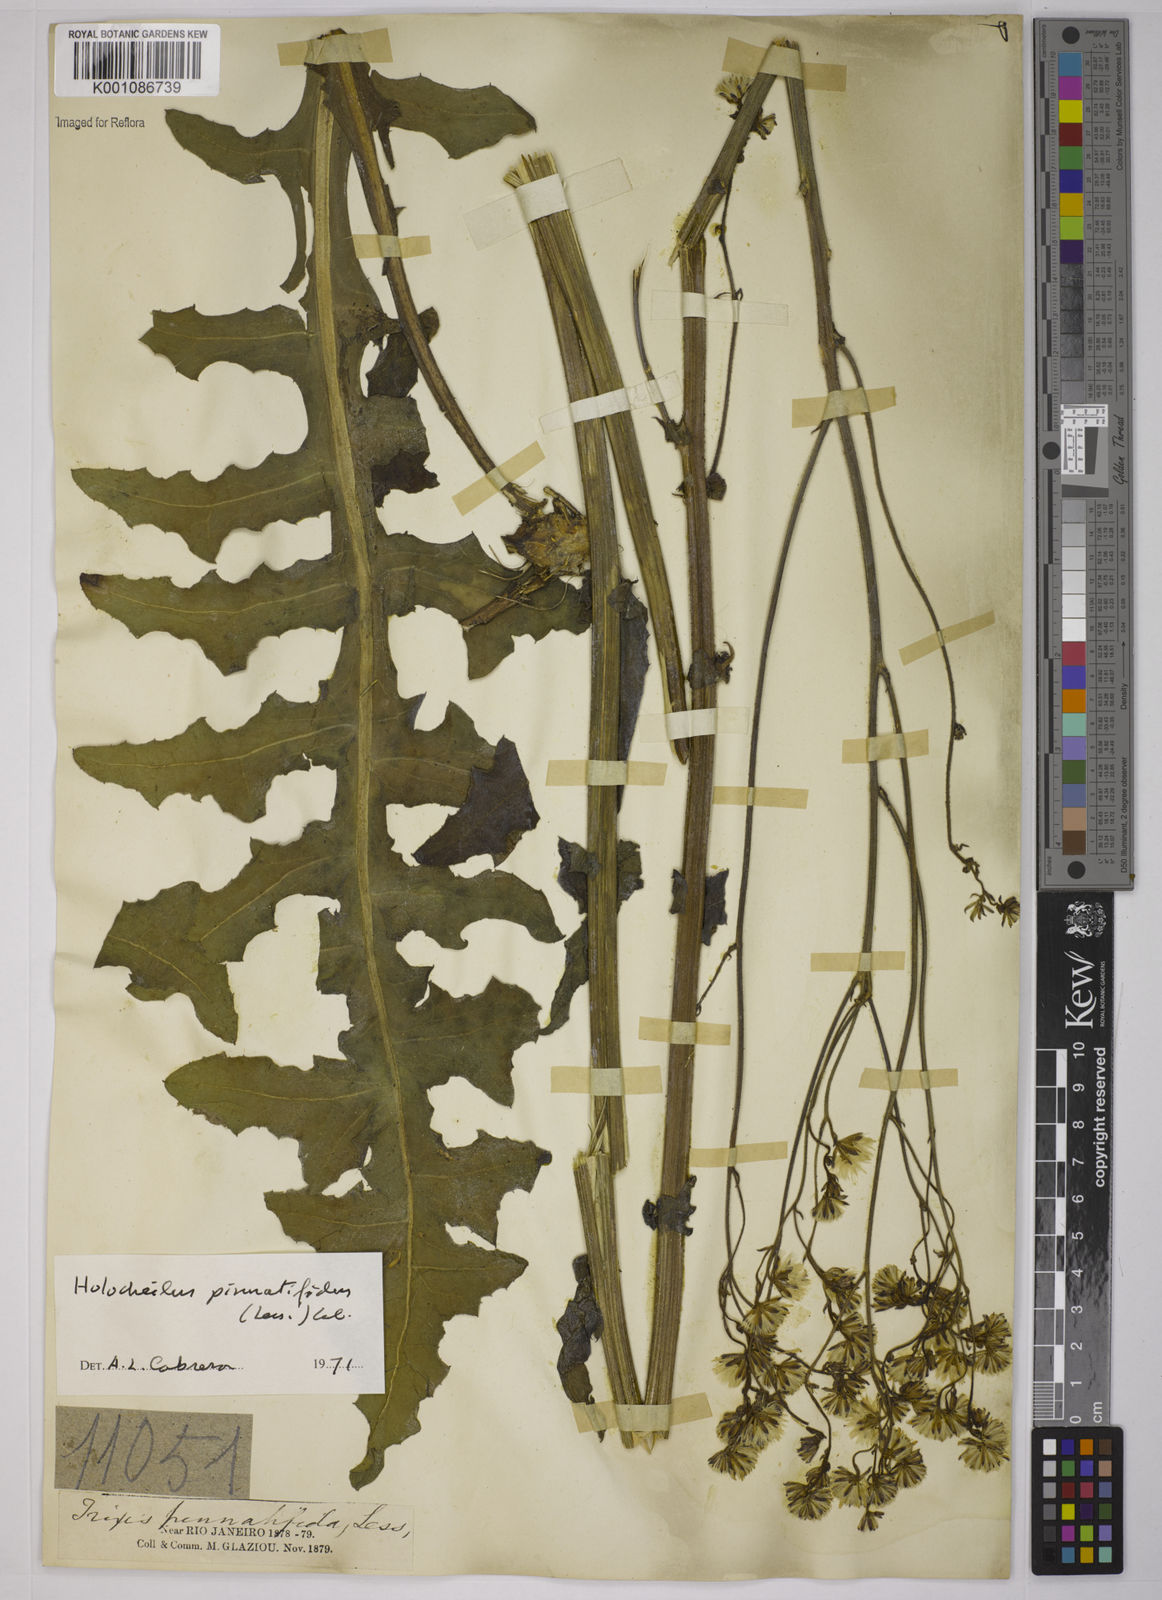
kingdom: Plantae
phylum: Tracheophyta
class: Magnoliopsida
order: Asterales
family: Asteraceae
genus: Holocheilus
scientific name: Holocheilus pinnatifidus
